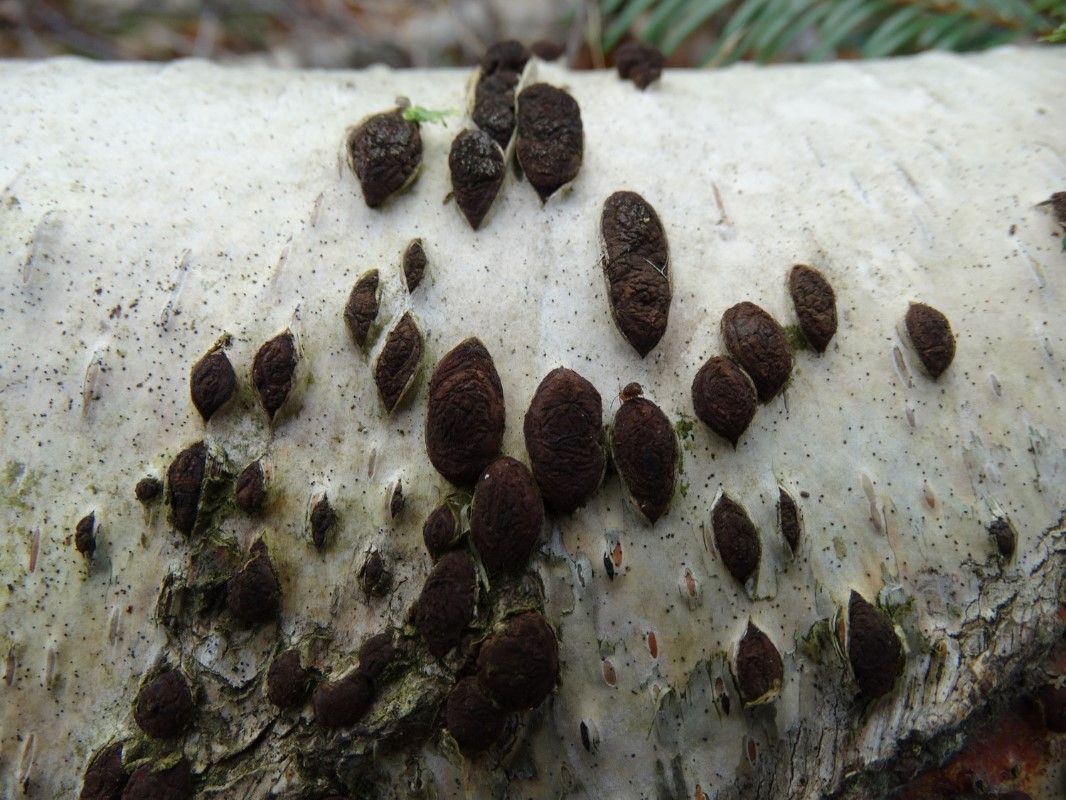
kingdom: Fungi
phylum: Ascomycota
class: Sordariomycetes
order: Xylariales
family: Hypoxylaceae
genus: Jackrogersella
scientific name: Jackrogersella multiformis
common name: foranderlig kulbær
